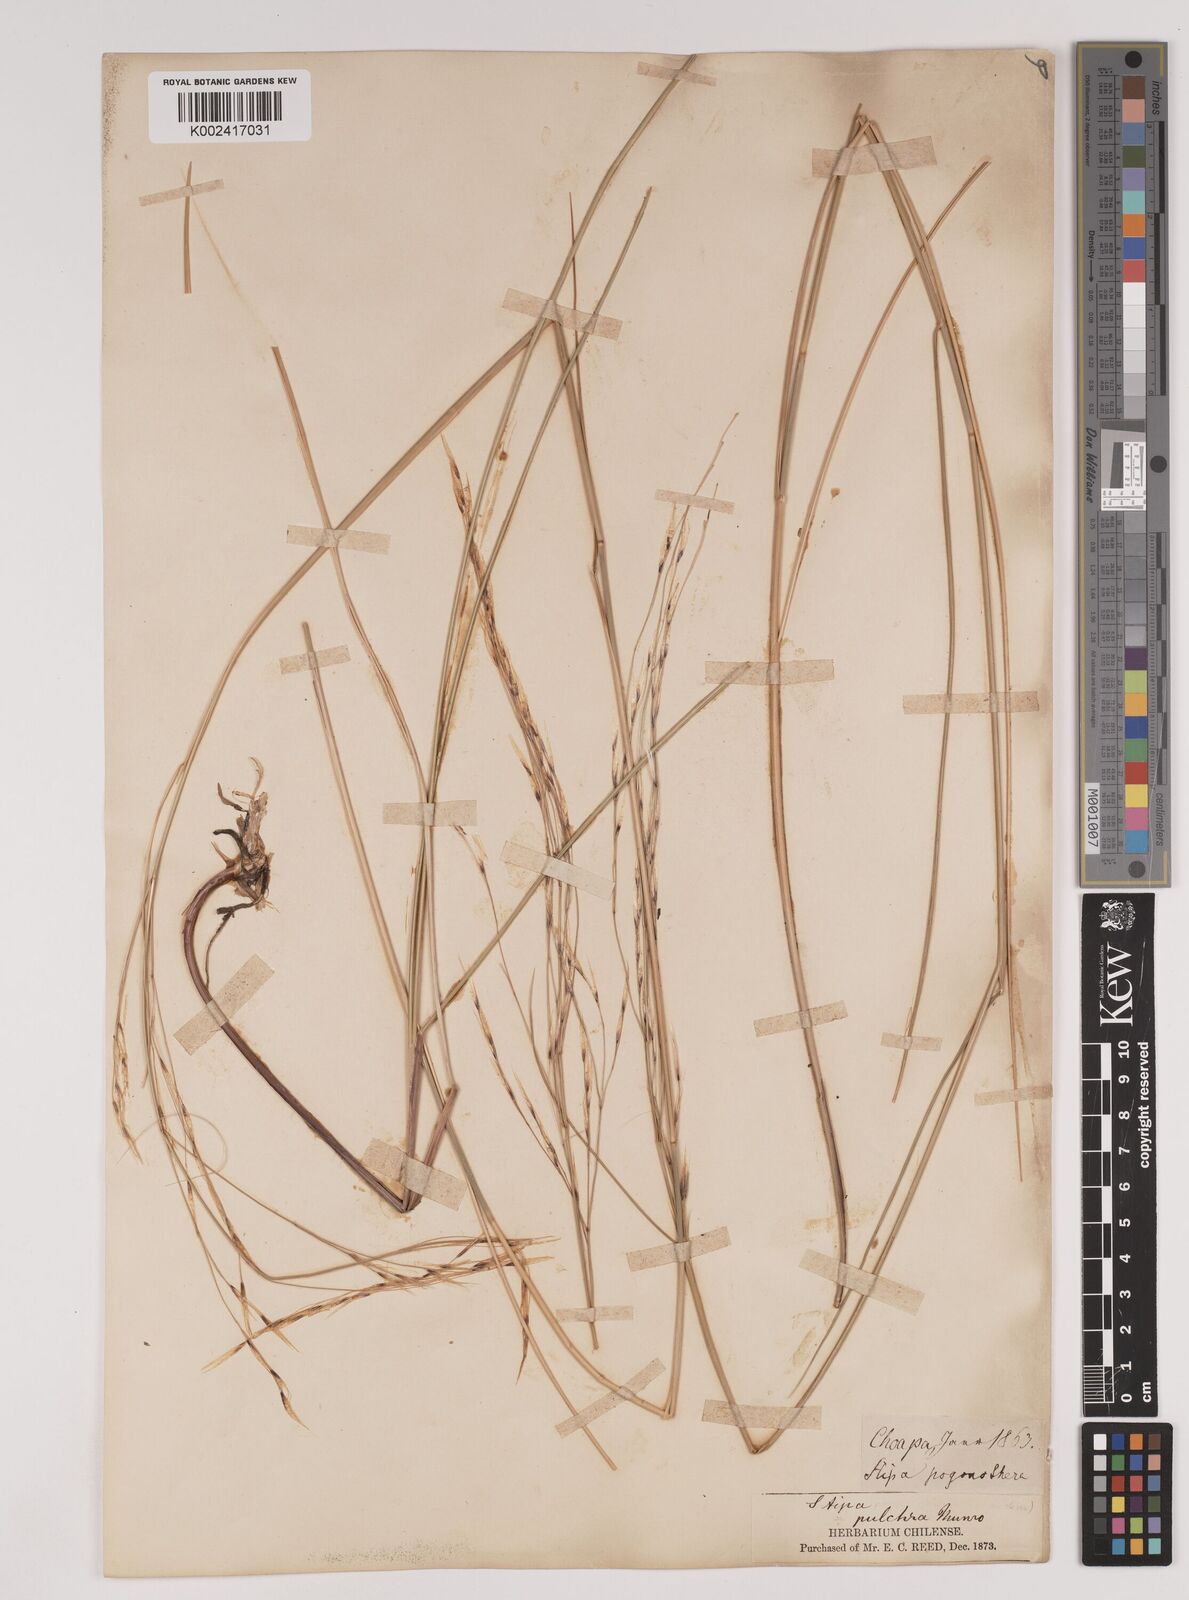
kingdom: Plantae
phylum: Tracheophyta
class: Liliopsida
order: Poales
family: Poaceae
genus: Stipa
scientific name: Stipa pogonathera
